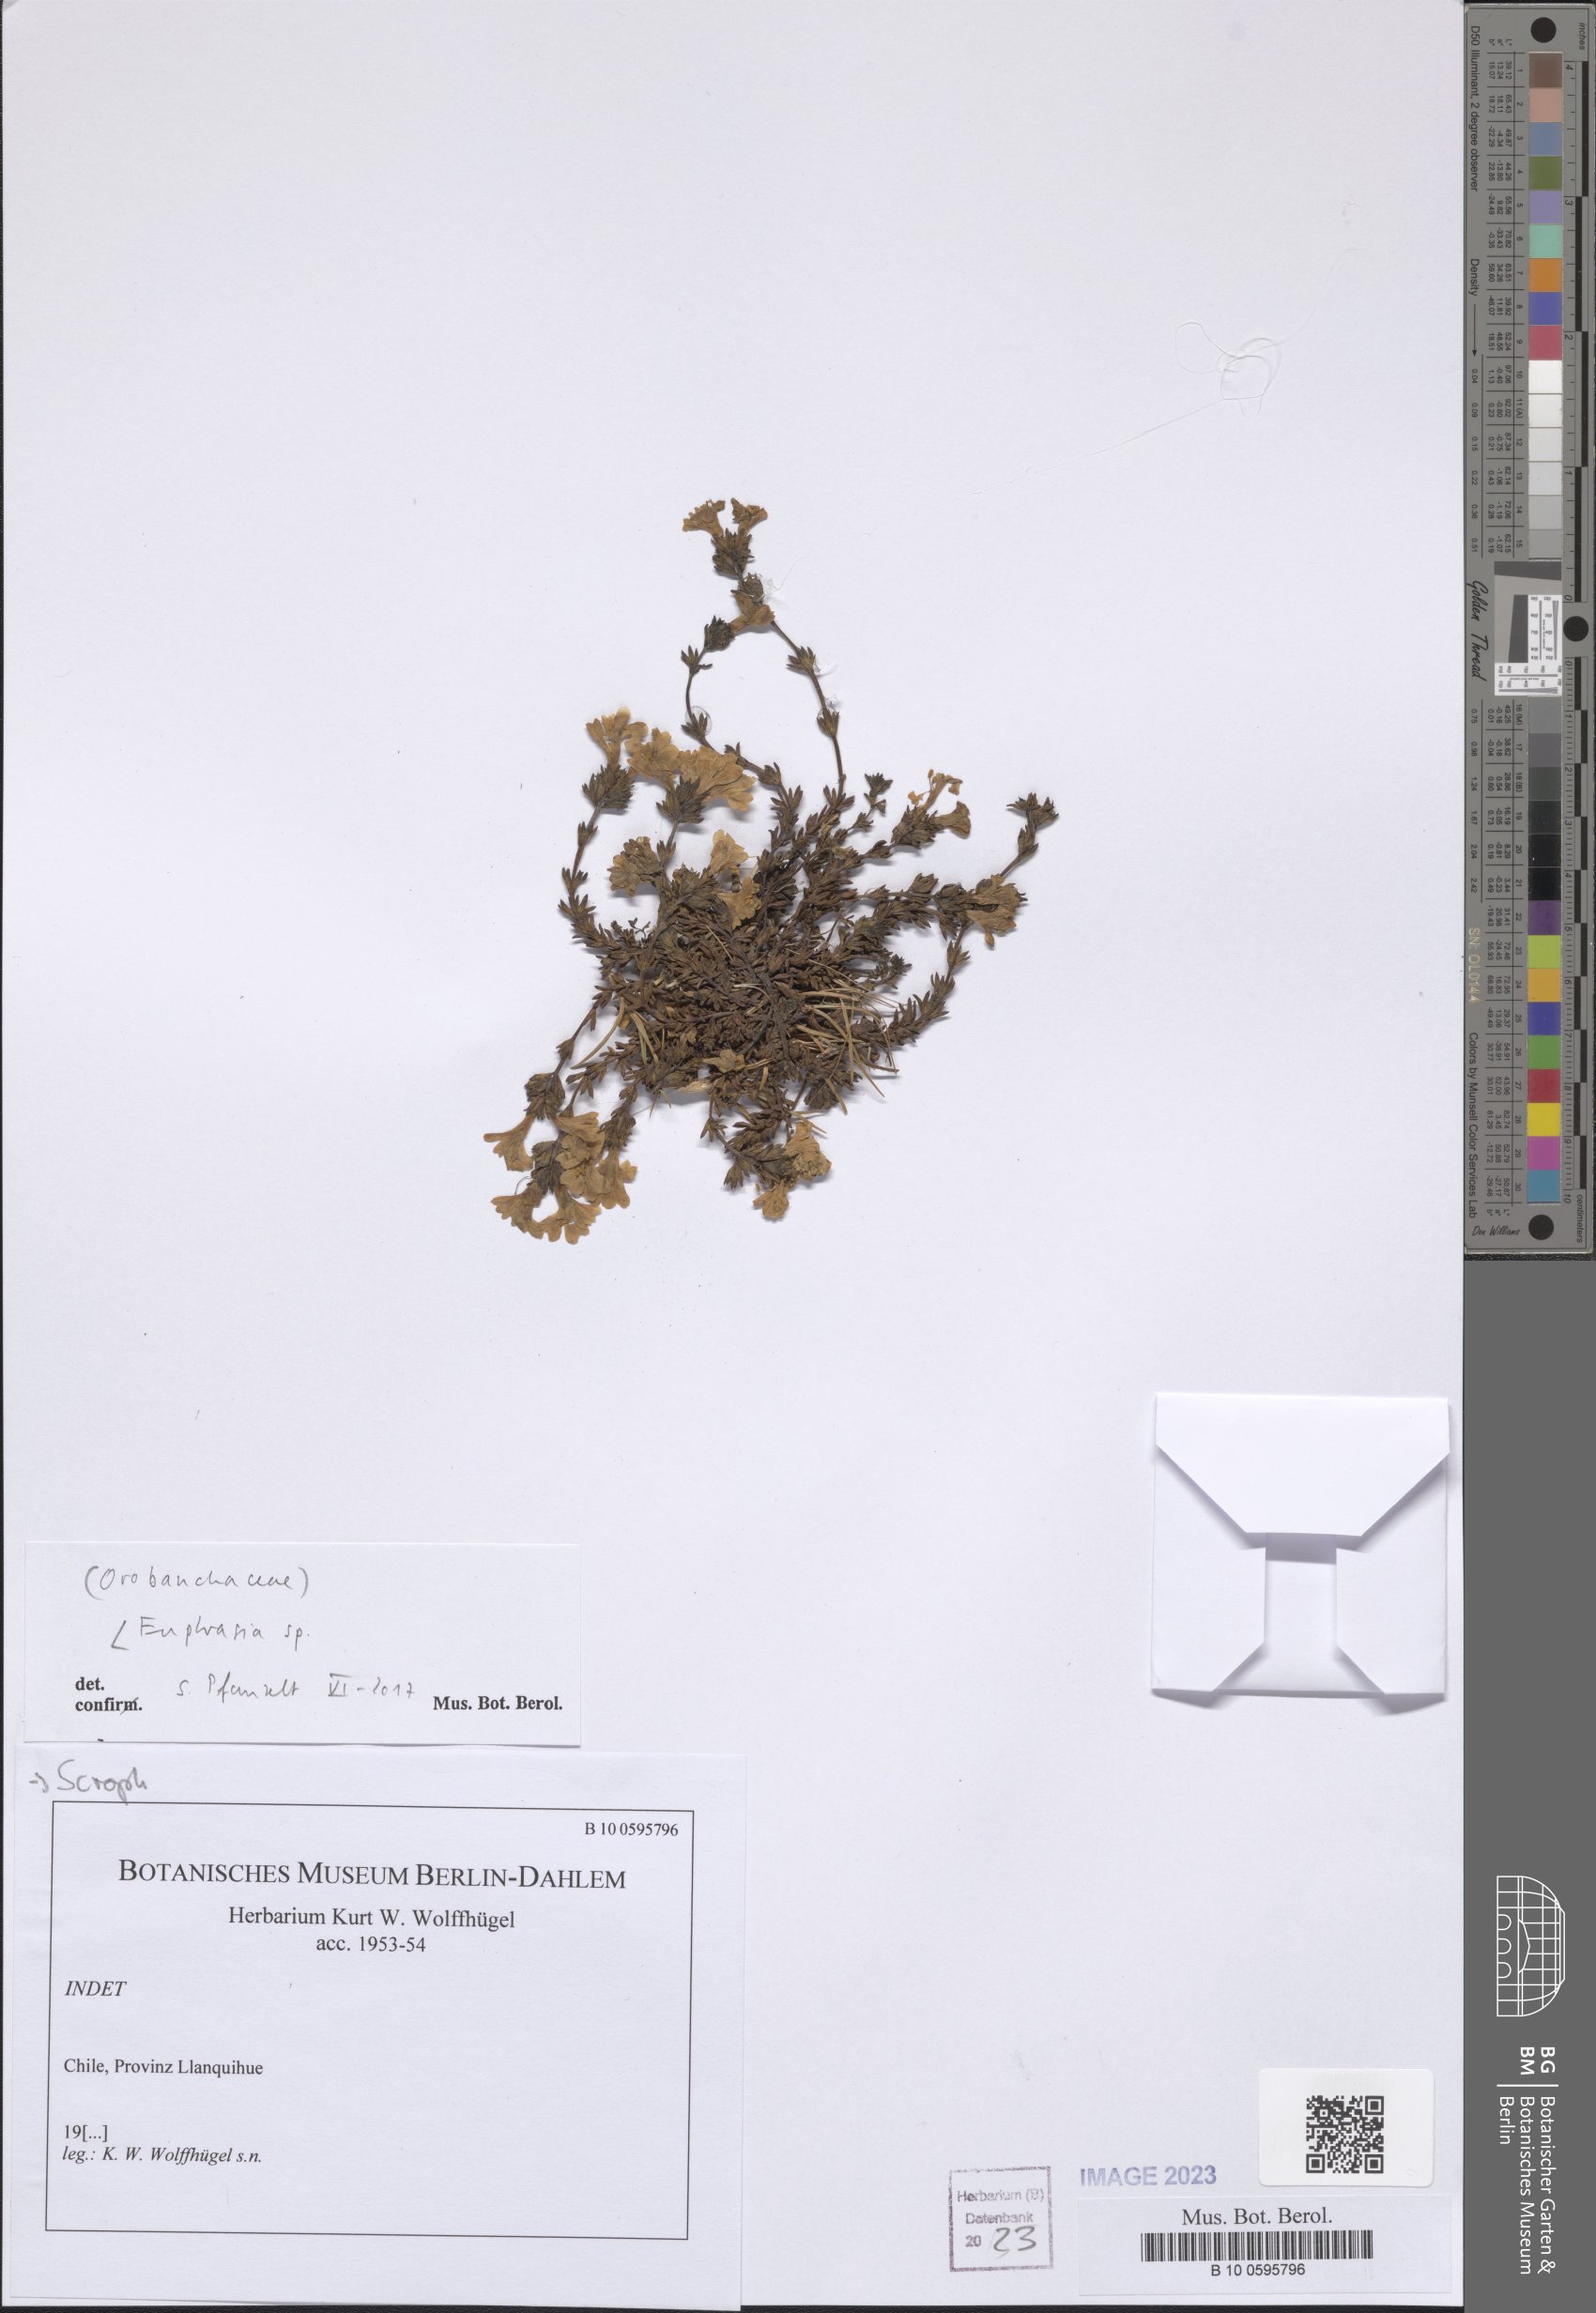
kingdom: Plantae
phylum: Tracheophyta
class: Magnoliopsida
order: Lamiales
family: Orobanchaceae
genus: Euphrasia
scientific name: Euphrasia
